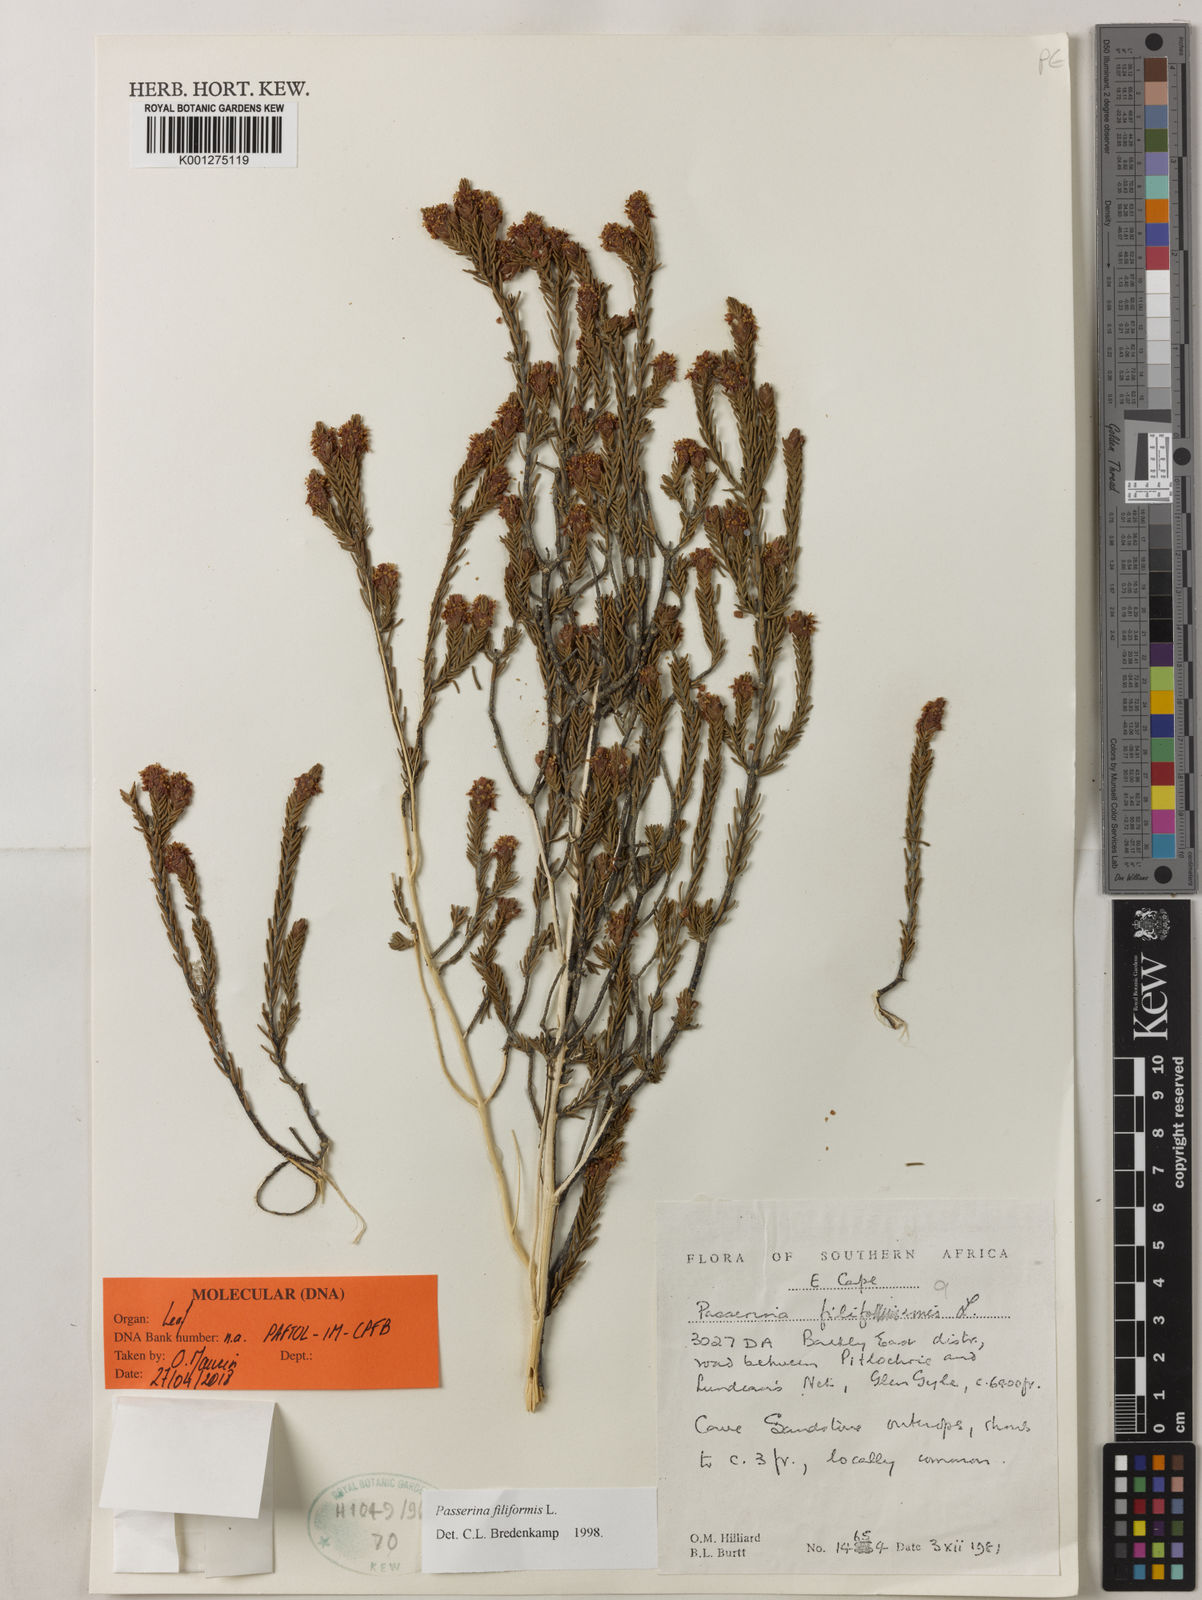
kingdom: Plantae
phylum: Tracheophyta
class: Magnoliopsida
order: Malvales
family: Thymelaeaceae
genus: Struthiola
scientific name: Struthiola dodecandra
